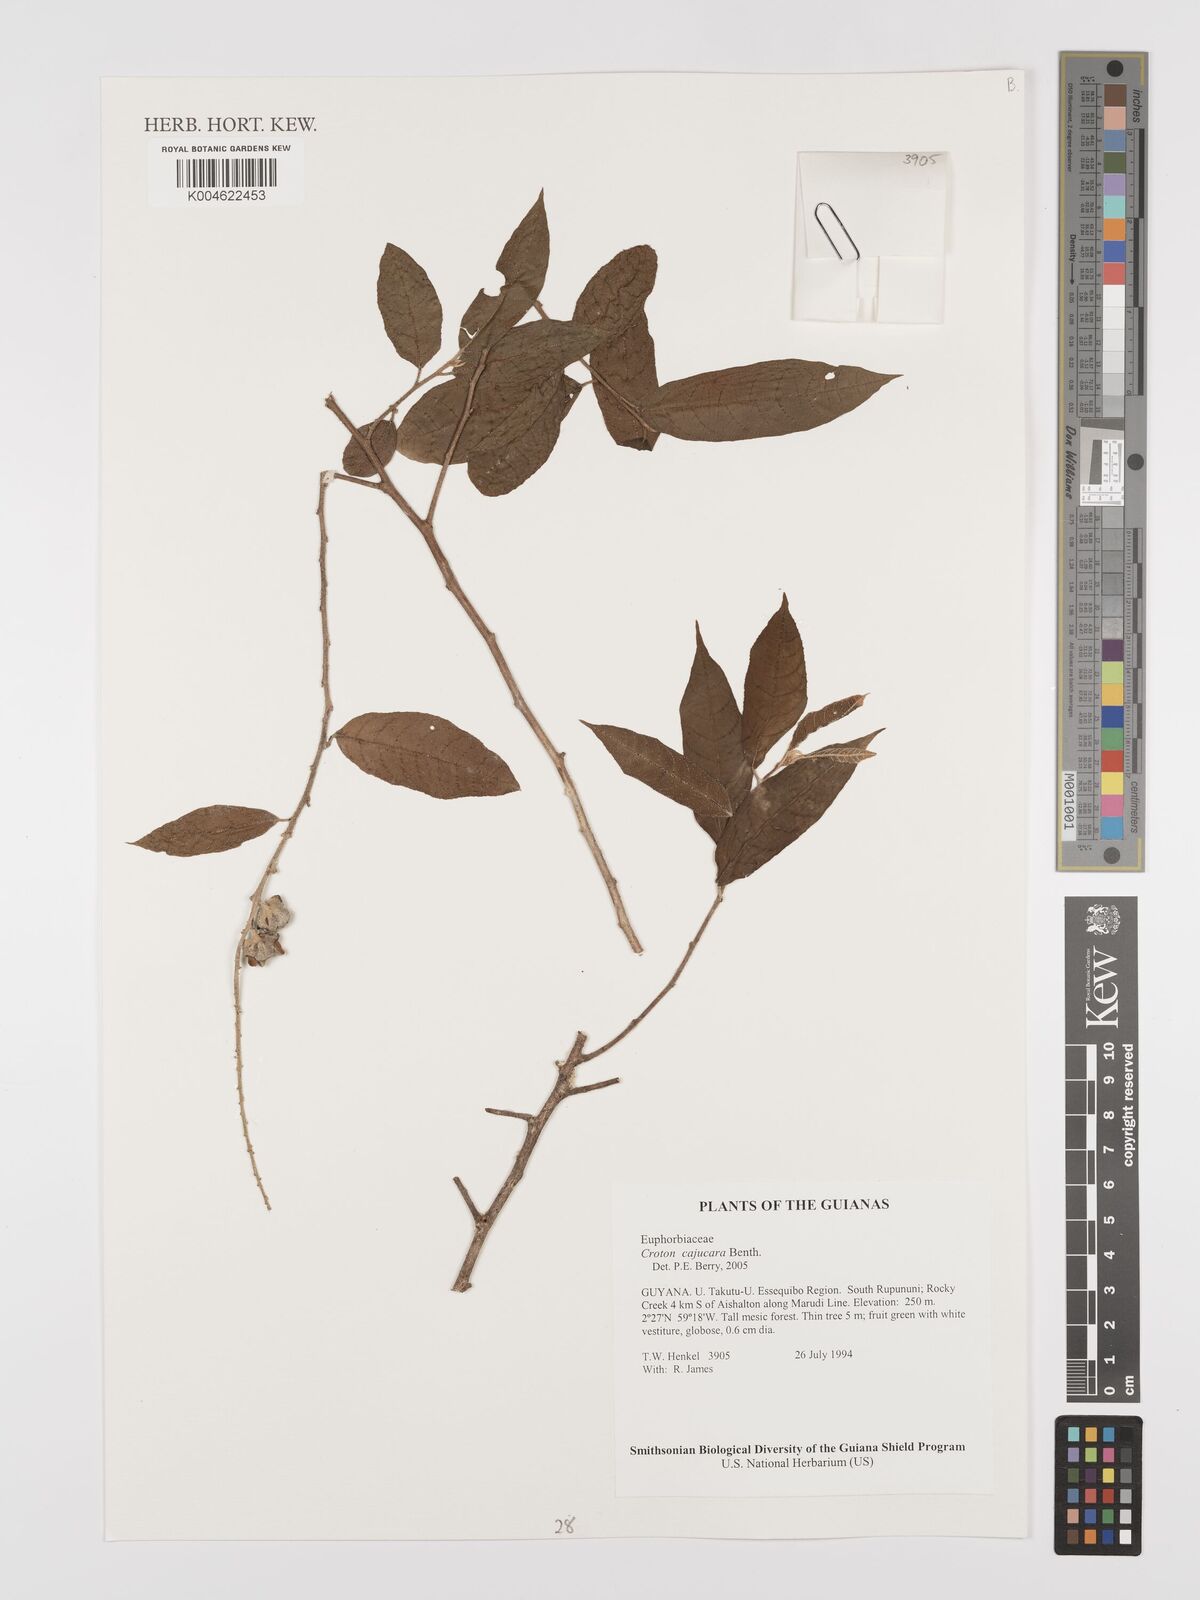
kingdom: Plantae
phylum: Tracheophyta
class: Magnoliopsida
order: Malpighiales
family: Euphorbiaceae
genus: Croton
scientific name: Croton cajucara
